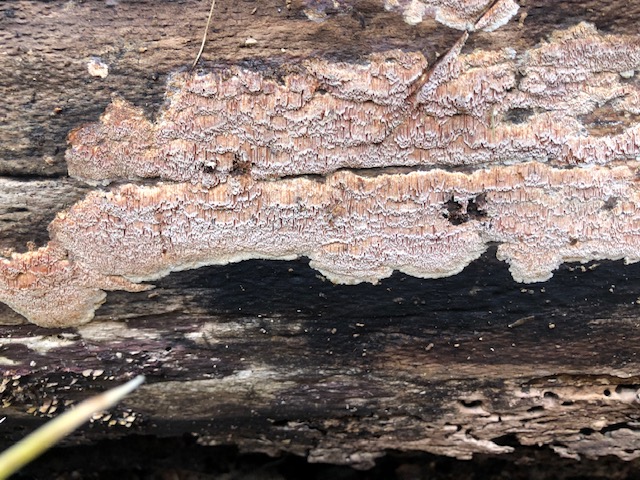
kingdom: Fungi
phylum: Basidiomycota
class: Agaricomycetes
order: Polyporales
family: Meruliaceae
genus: Mycoacia
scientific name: Mycoacia gilvescens
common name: rosa pastelporesvamp
